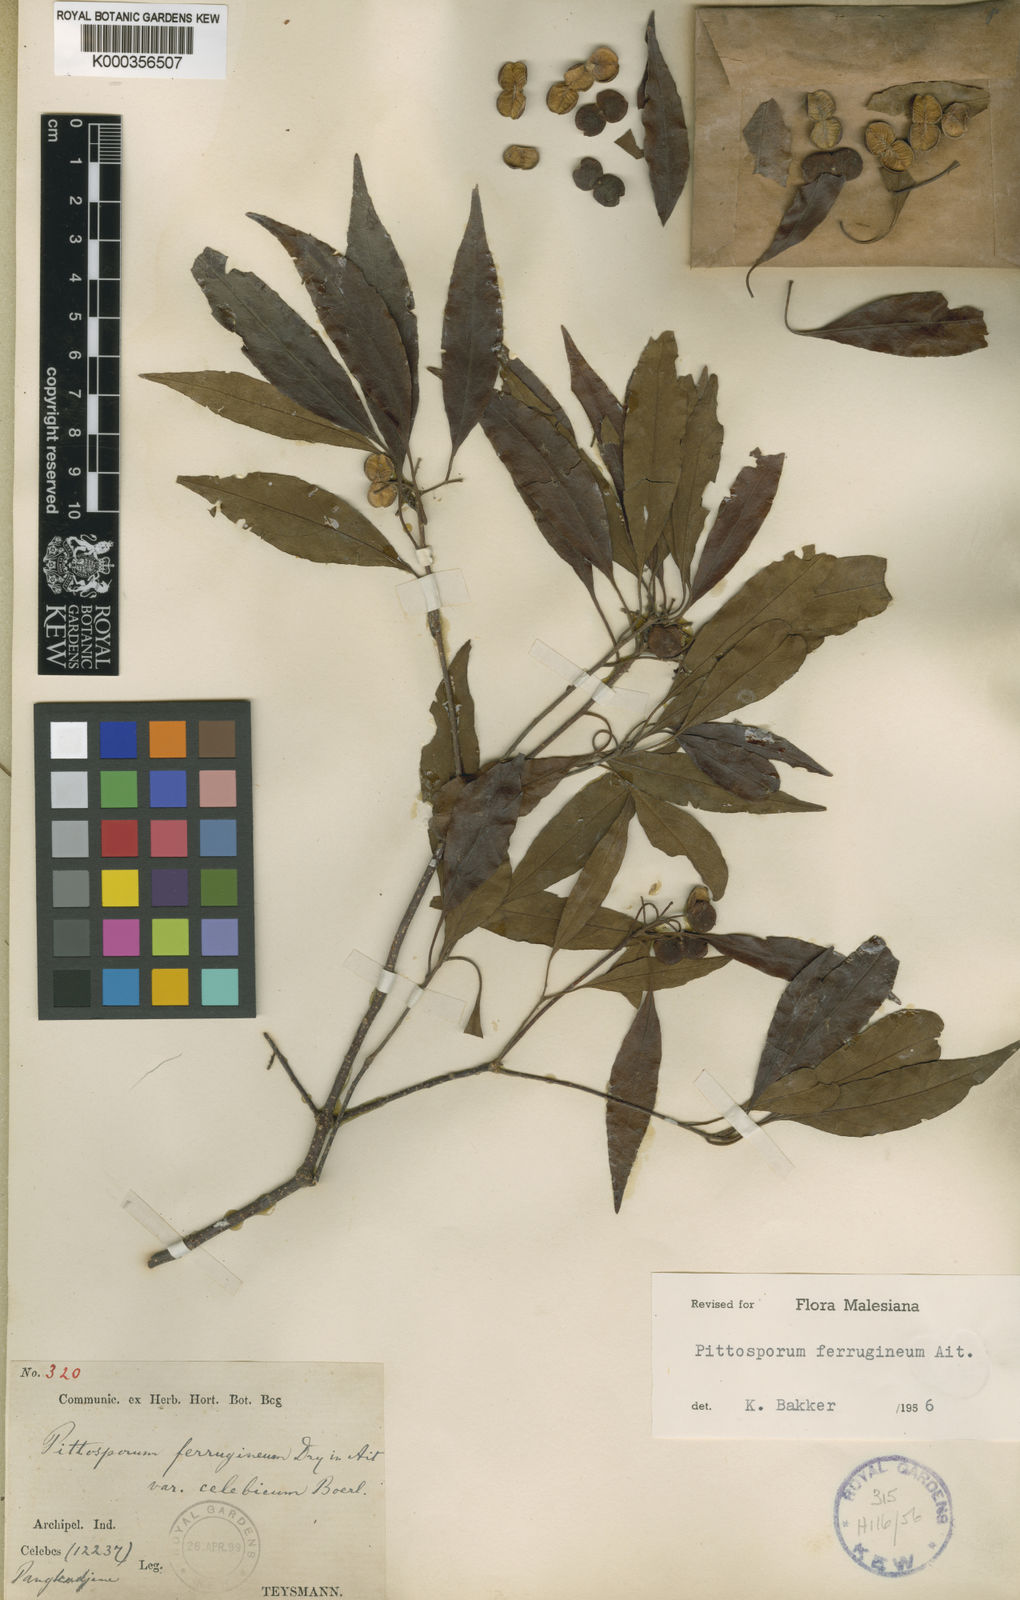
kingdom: Plantae
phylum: Tracheophyta
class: Magnoliopsida
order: Apiales
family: Pittosporaceae
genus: Pittosporum
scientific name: Pittosporum ferrugineum
